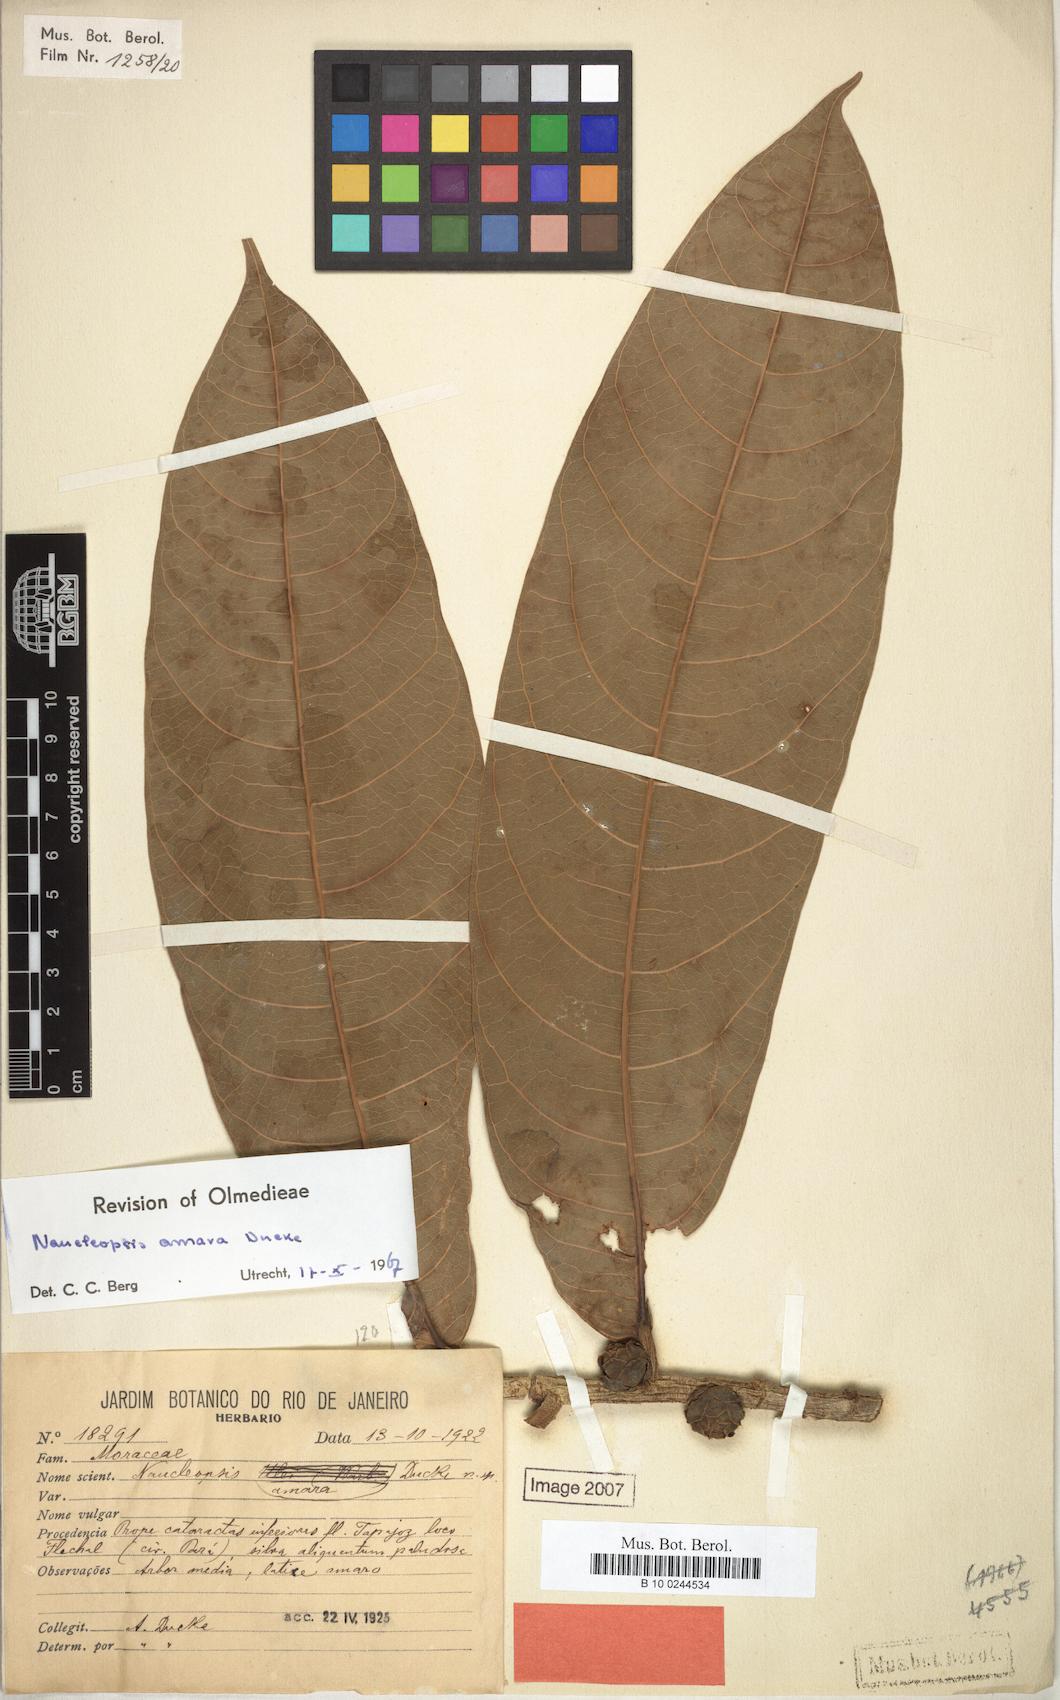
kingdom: Plantae
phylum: Tracheophyta
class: Magnoliopsida
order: Rosales
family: Moraceae
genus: Naucleopsis
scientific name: Naucleopsis ulei
